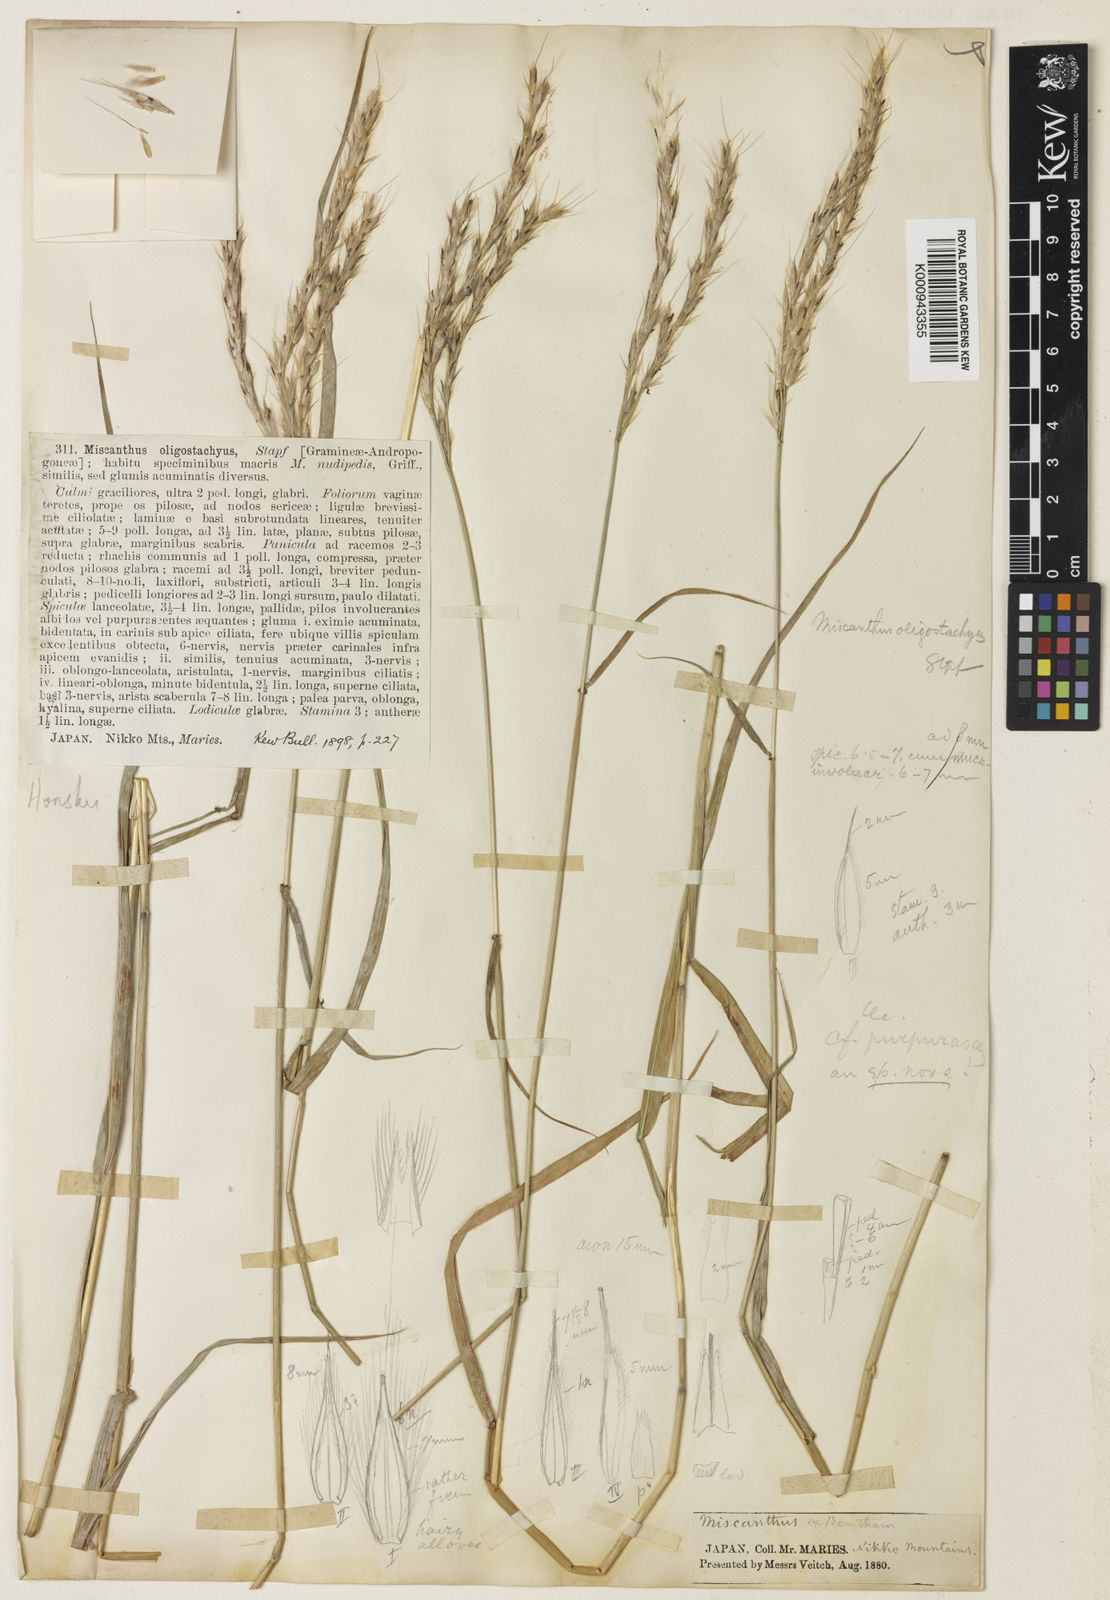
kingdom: Plantae
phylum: Tracheophyta
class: Liliopsida
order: Poales
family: Poaceae
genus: Miscanthus
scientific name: Miscanthus oligostachyus
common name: Small japanese silver grass
